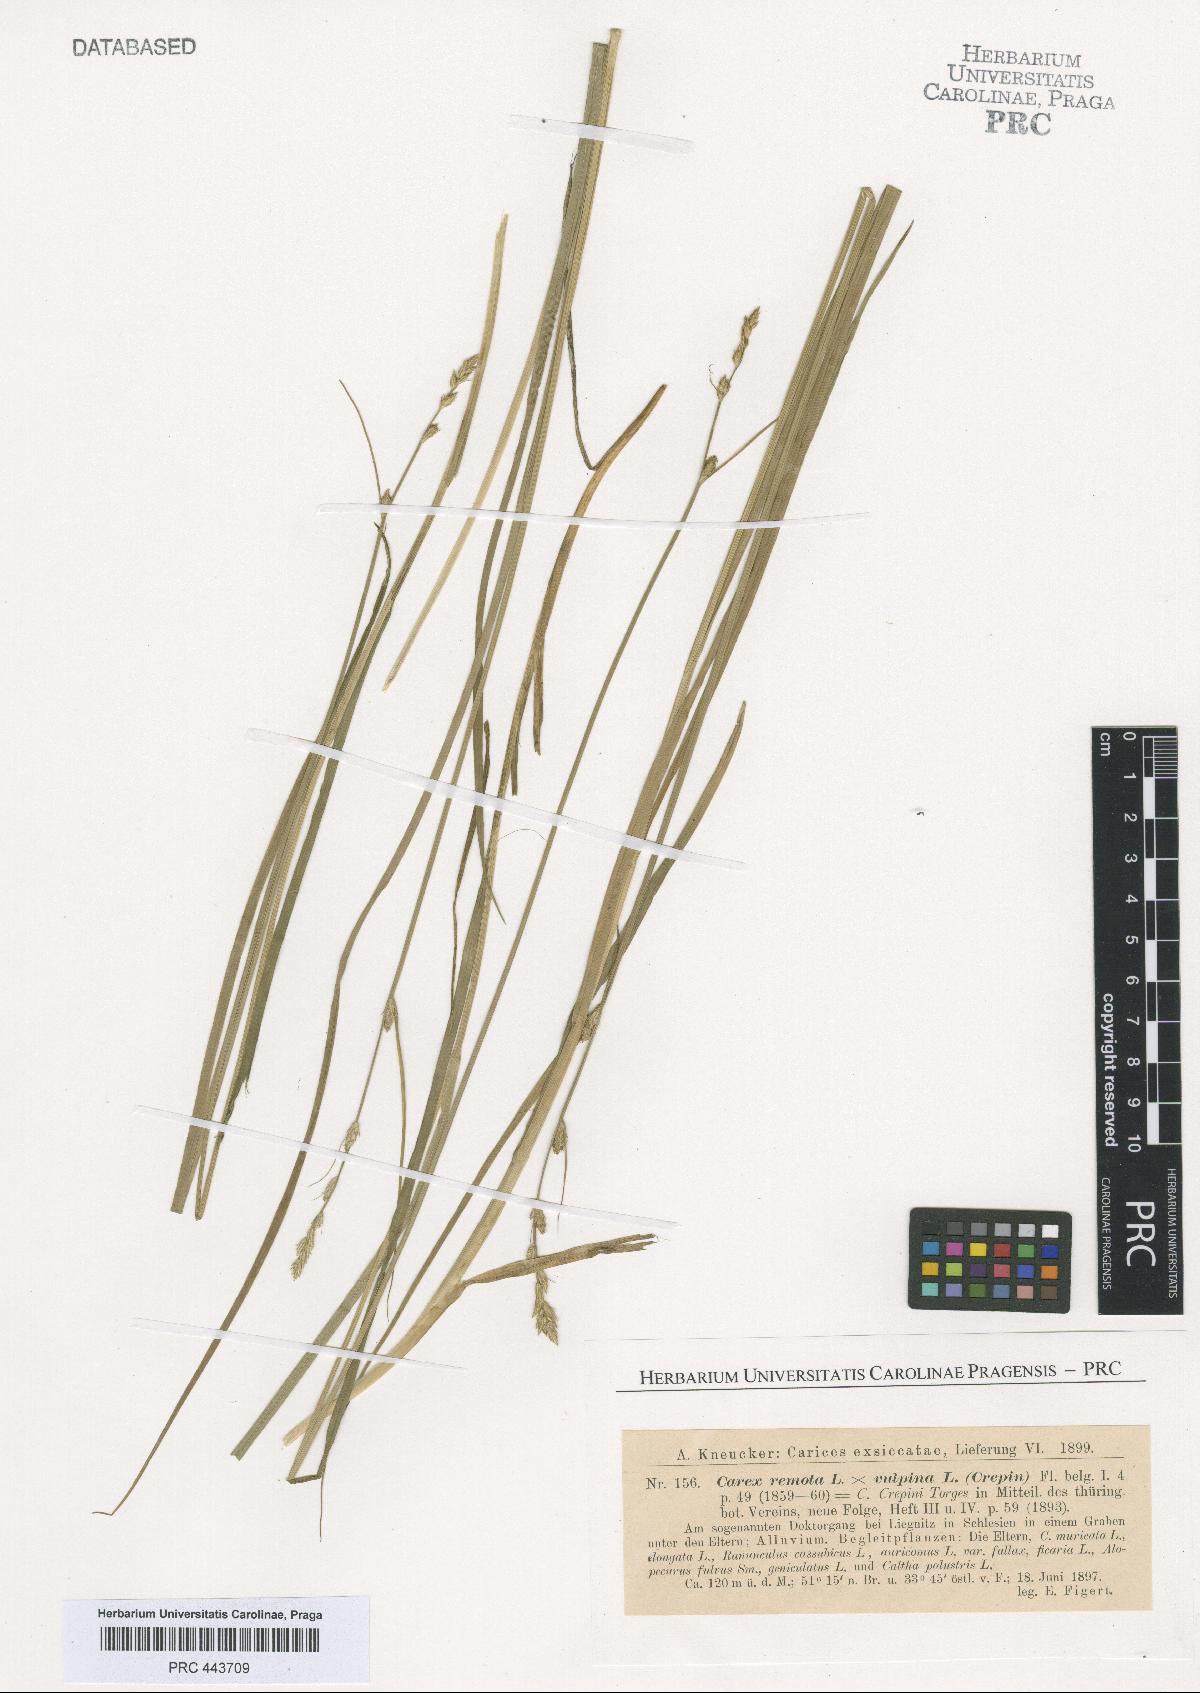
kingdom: Plantae
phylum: Tracheophyta
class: Liliopsida
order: Poales
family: Cyperaceae
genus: Carex
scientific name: Carex pseudoaxillaris
